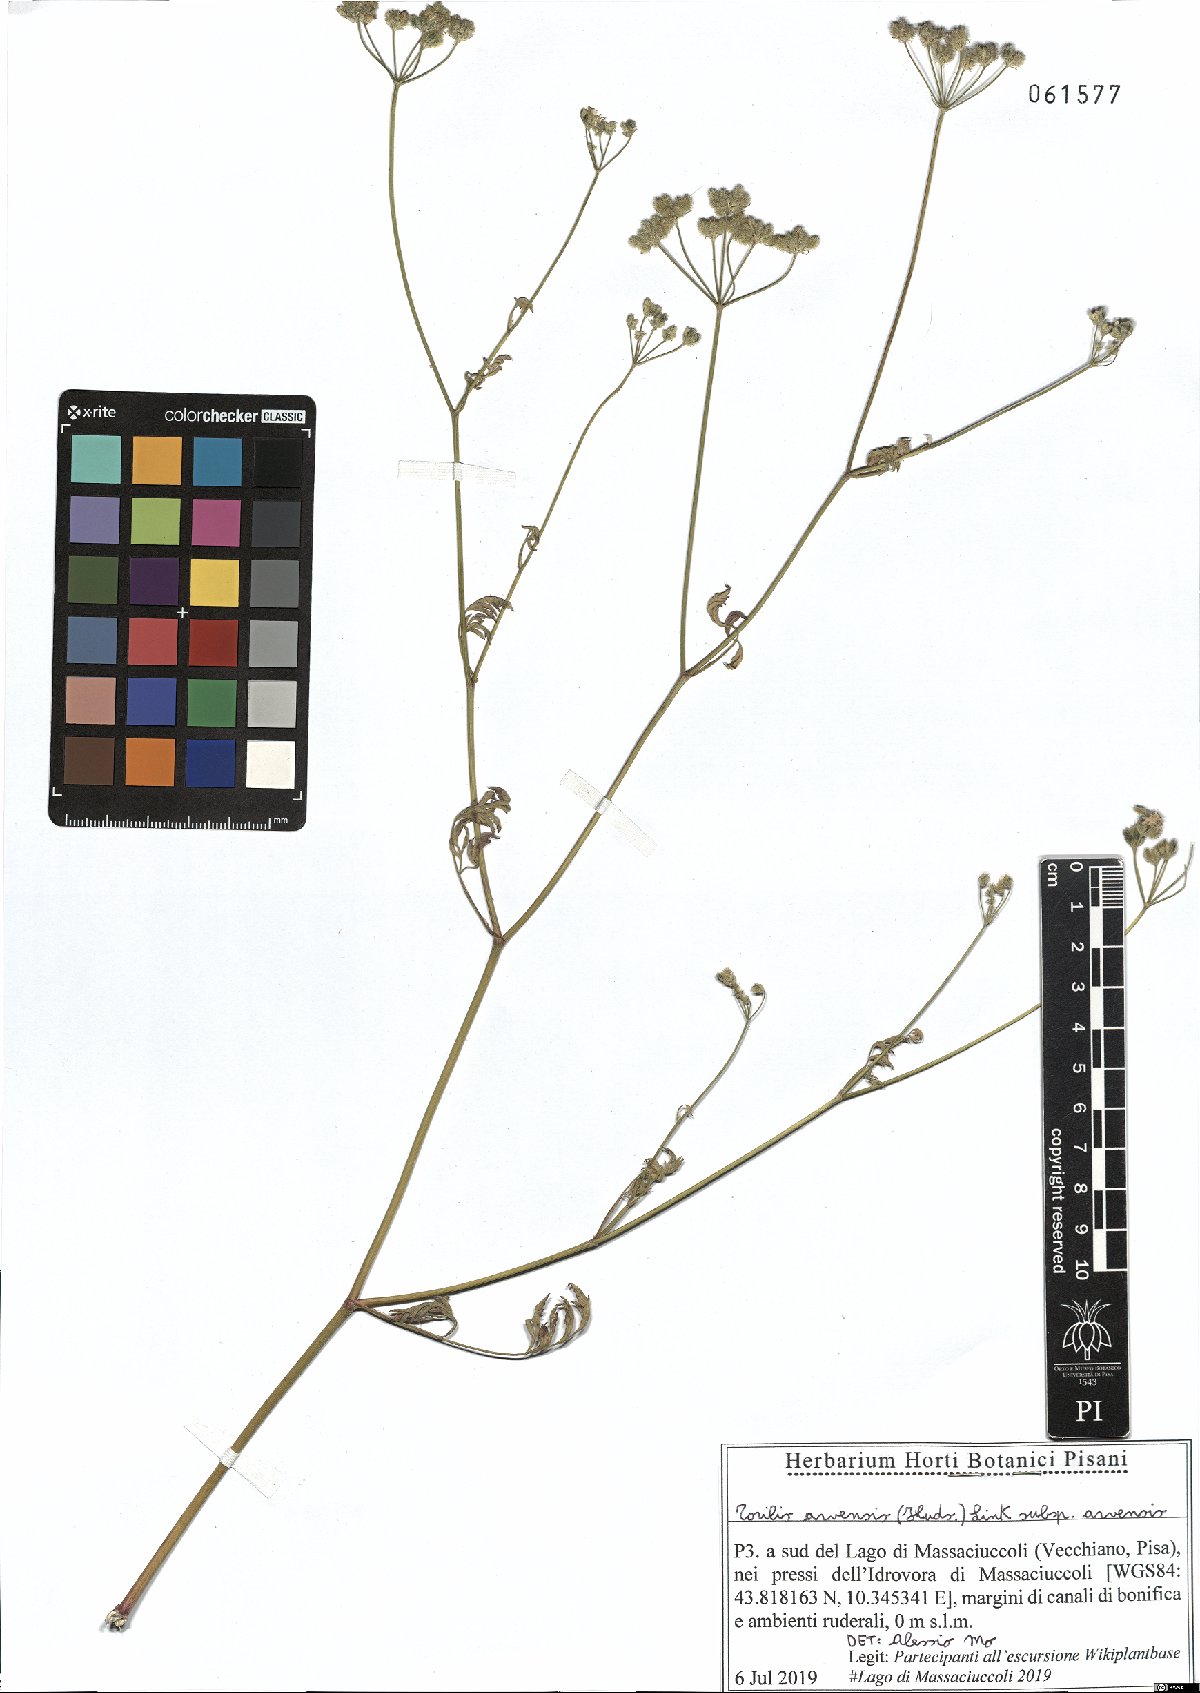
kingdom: Plantae
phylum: Tracheophyta
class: Magnoliopsida
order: Apiales
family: Apiaceae
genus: Torilis
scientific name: Torilis arvensis
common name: Spreading hedge-parsley
